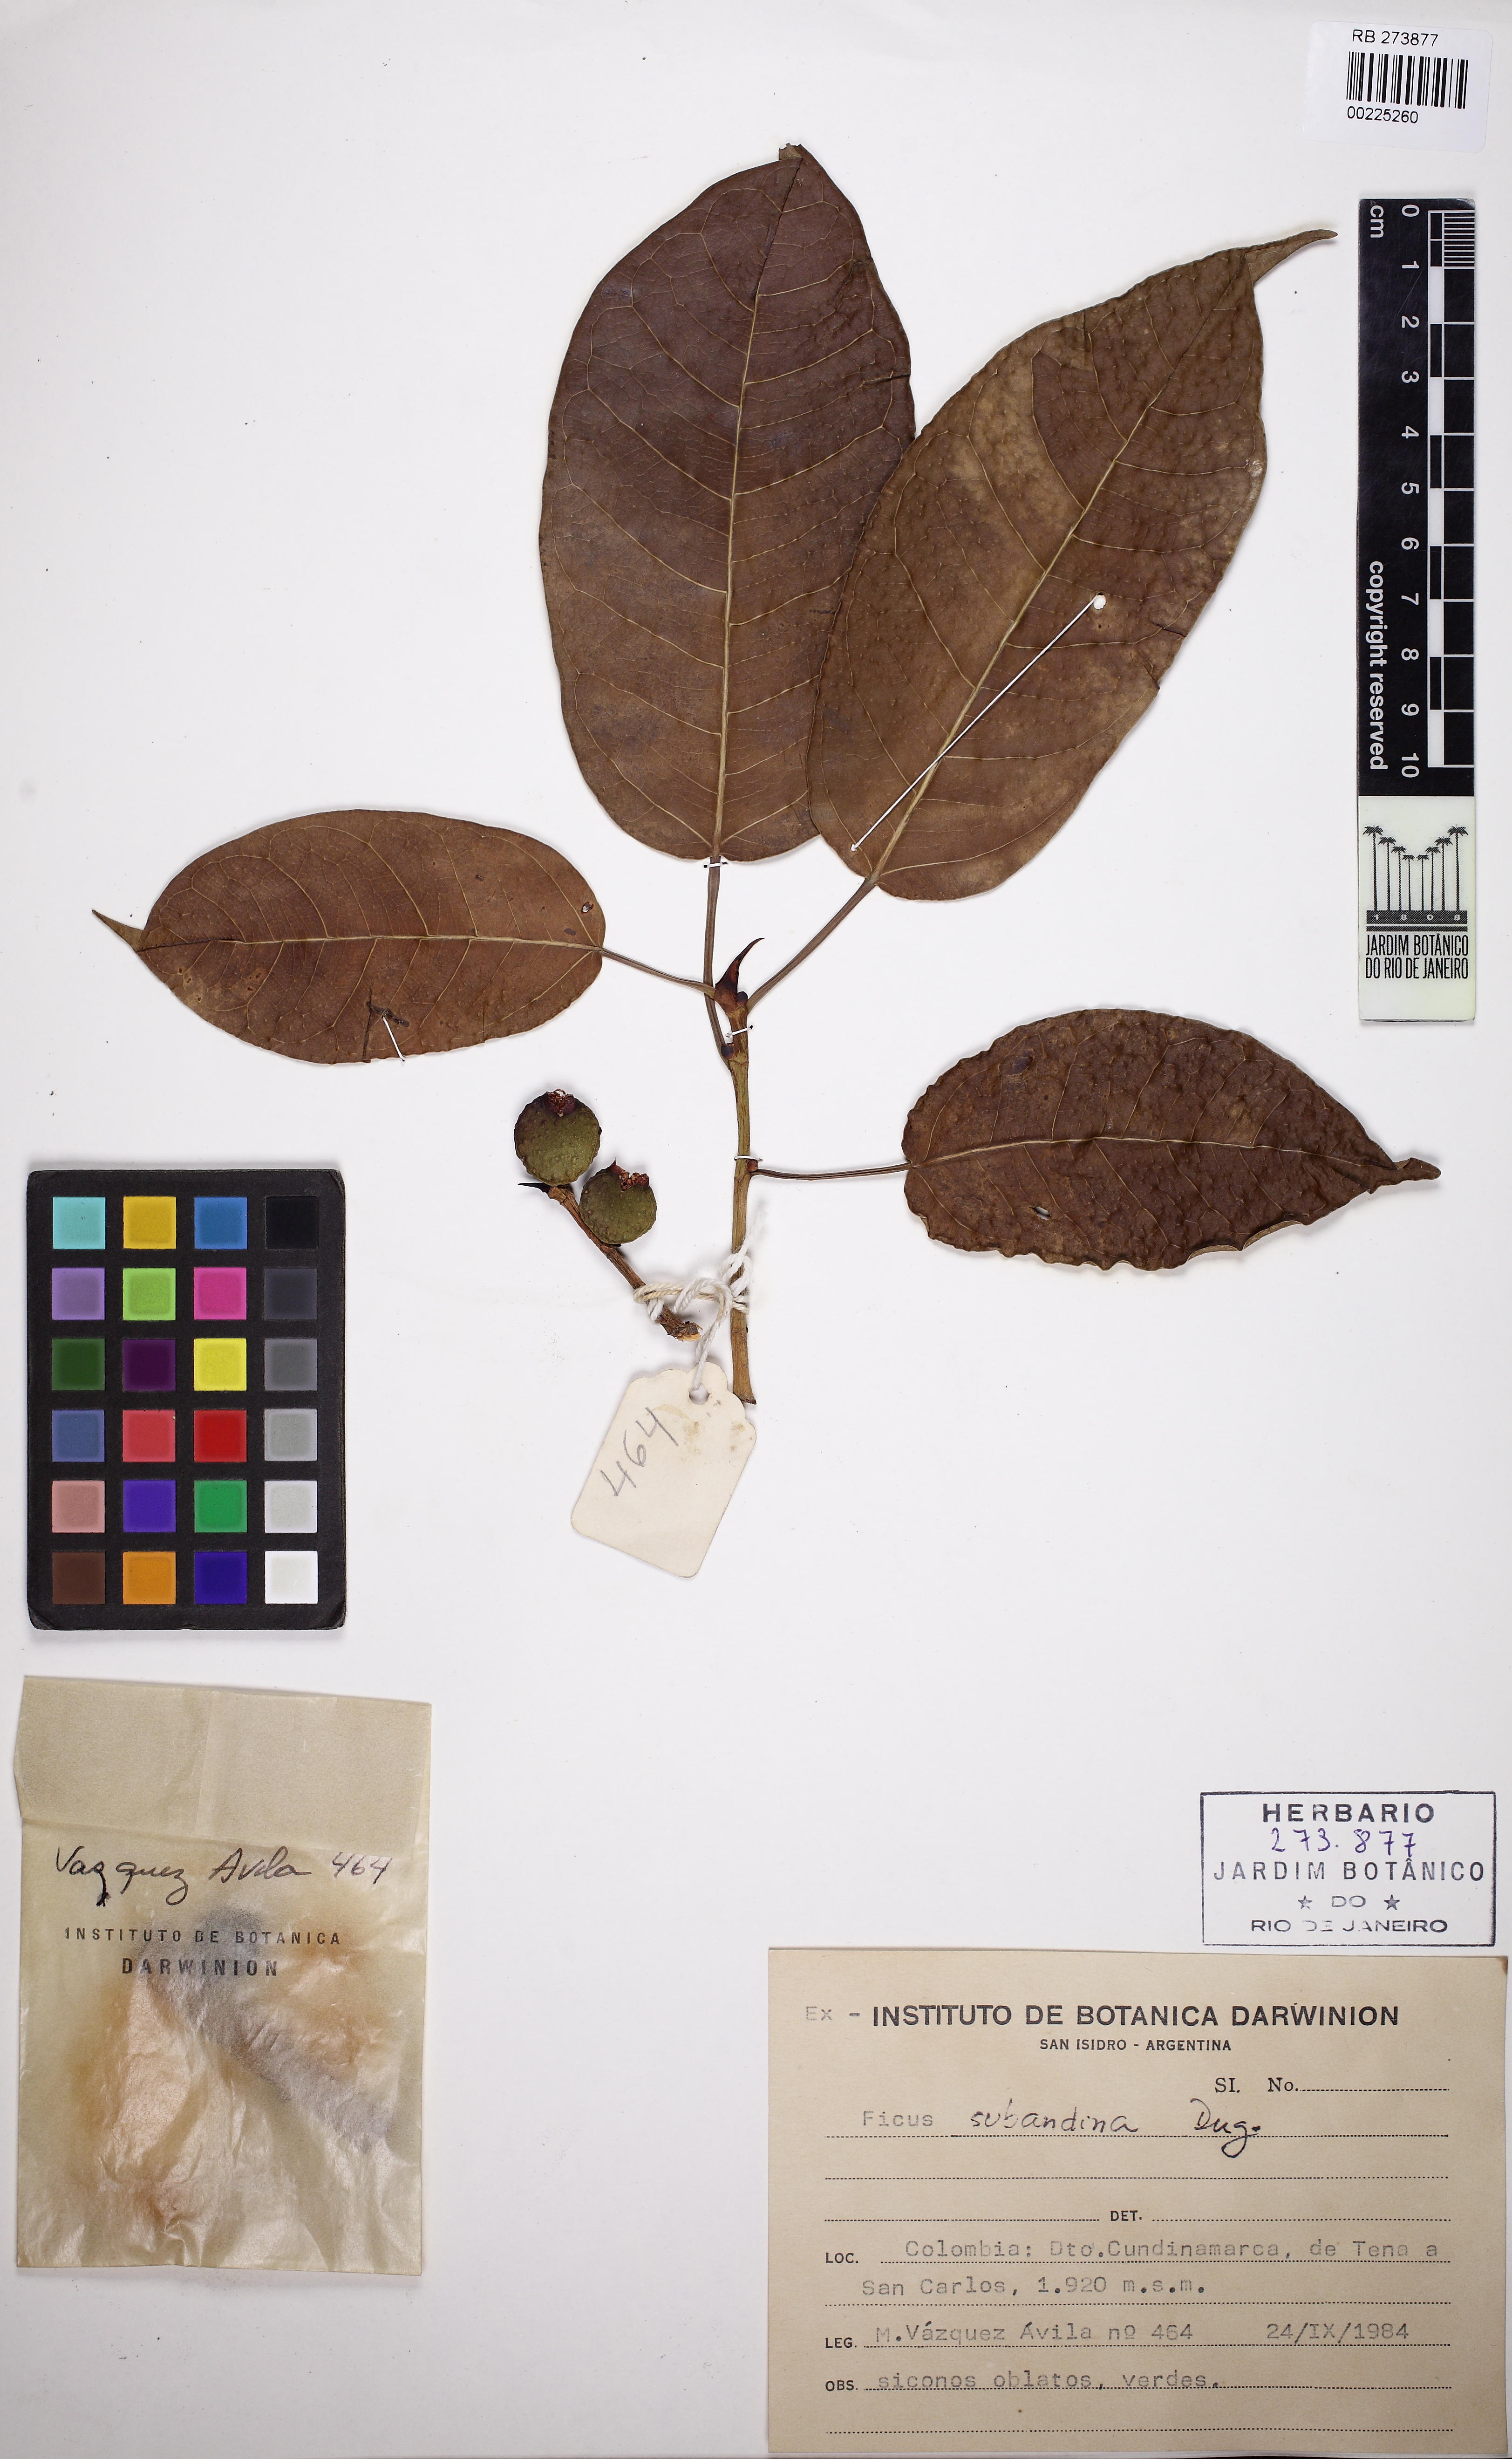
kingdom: Plantae
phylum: Tracheophyta
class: Magnoliopsida
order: Rosales
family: Moraceae
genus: Ficus
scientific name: Ficus citrifolia
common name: Strangler fig
